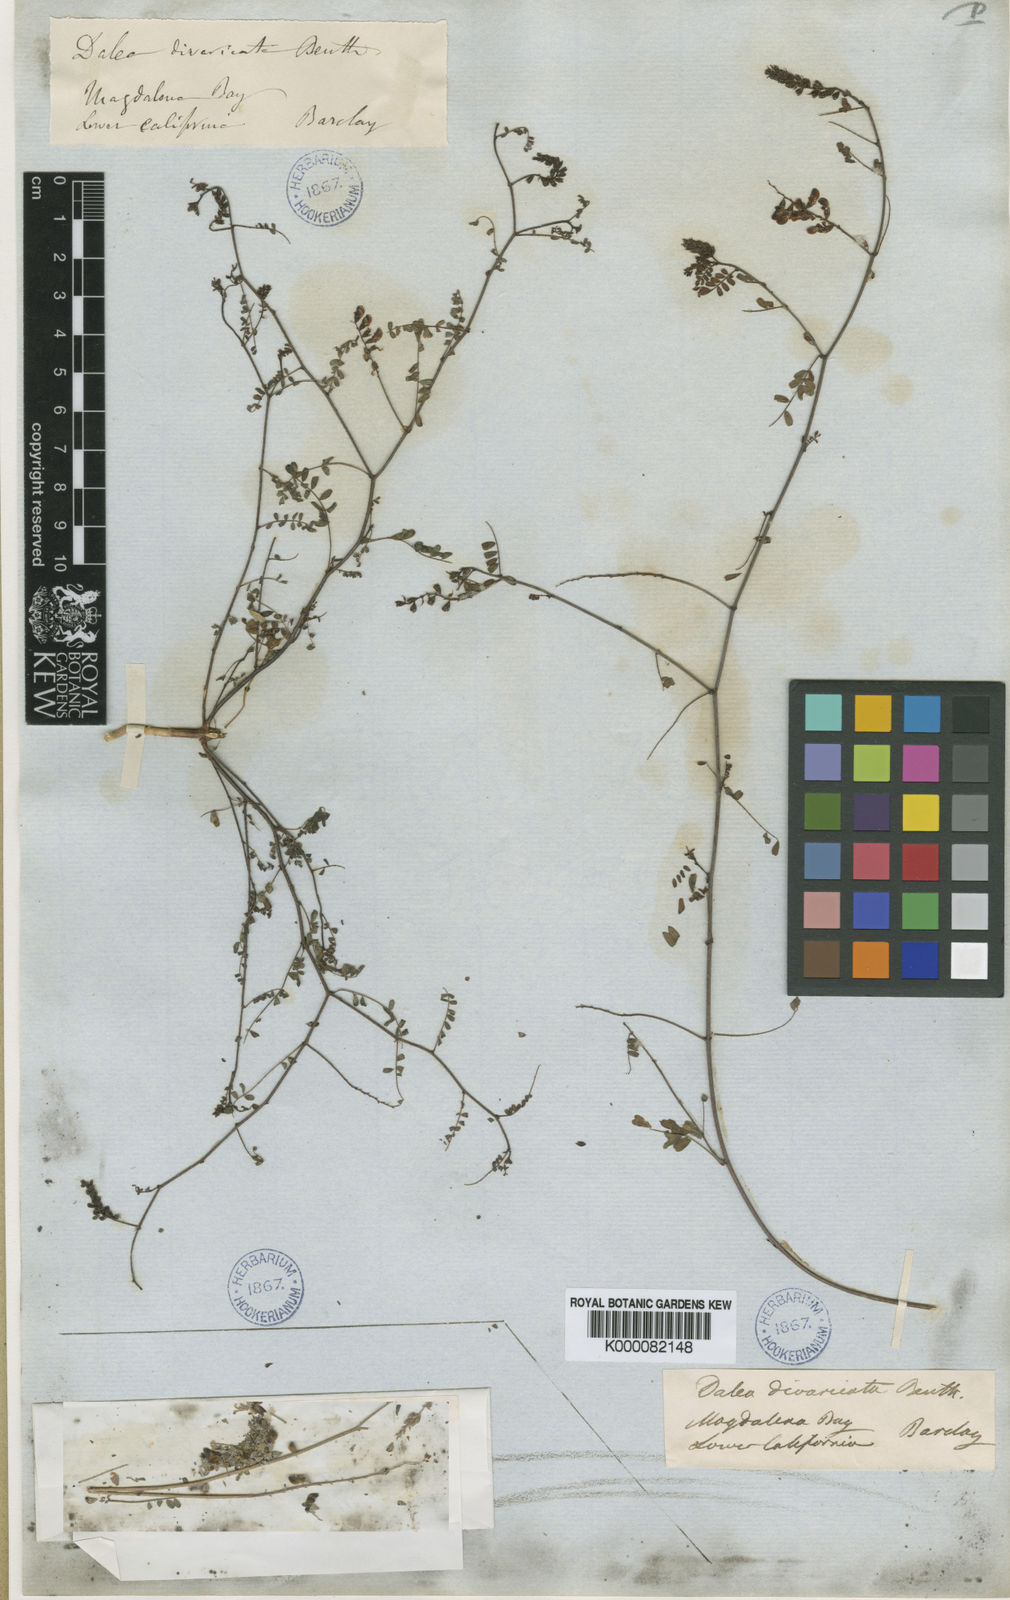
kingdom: Plantae
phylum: Tracheophyta
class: Magnoliopsida
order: Fabales
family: Fabaceae
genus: Marina
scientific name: Marina divaricata
